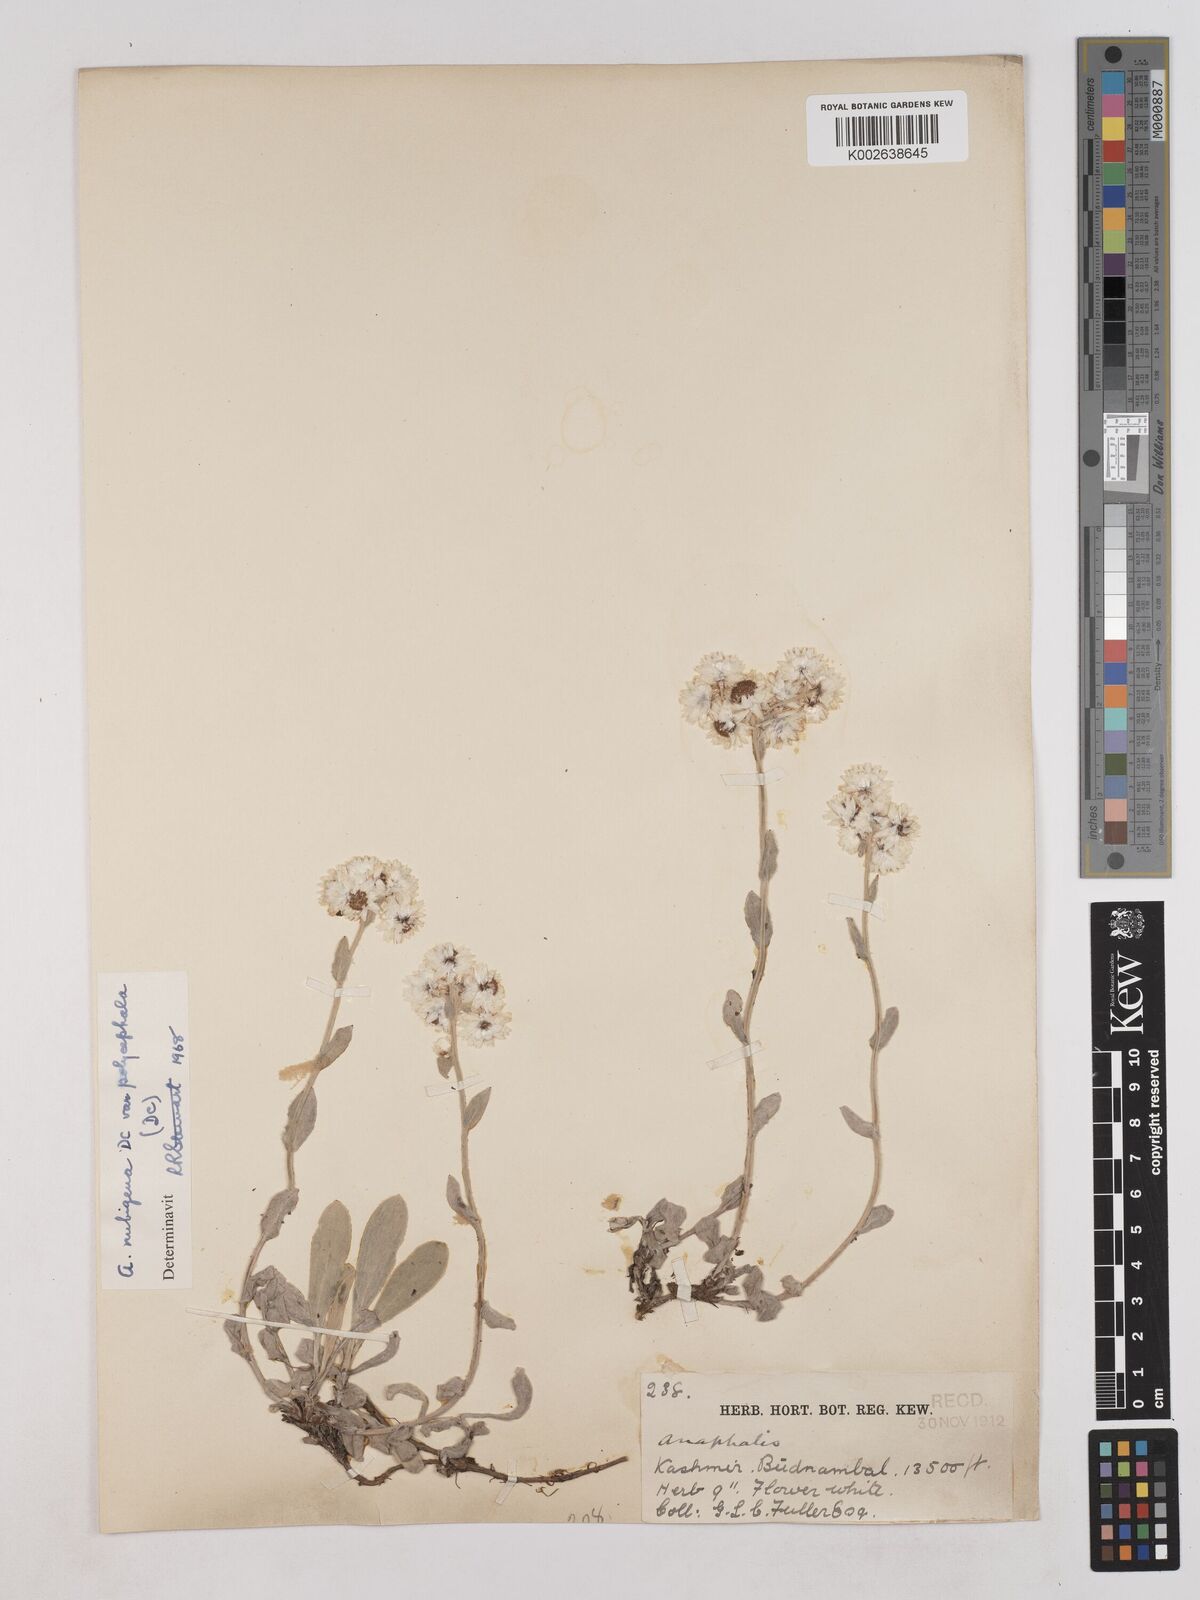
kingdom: Plantae
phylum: Tracheophyta
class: Magnoliopsida
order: Asterales
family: Asteraceae
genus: Anaphalis
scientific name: Anaphalis nepalensis
